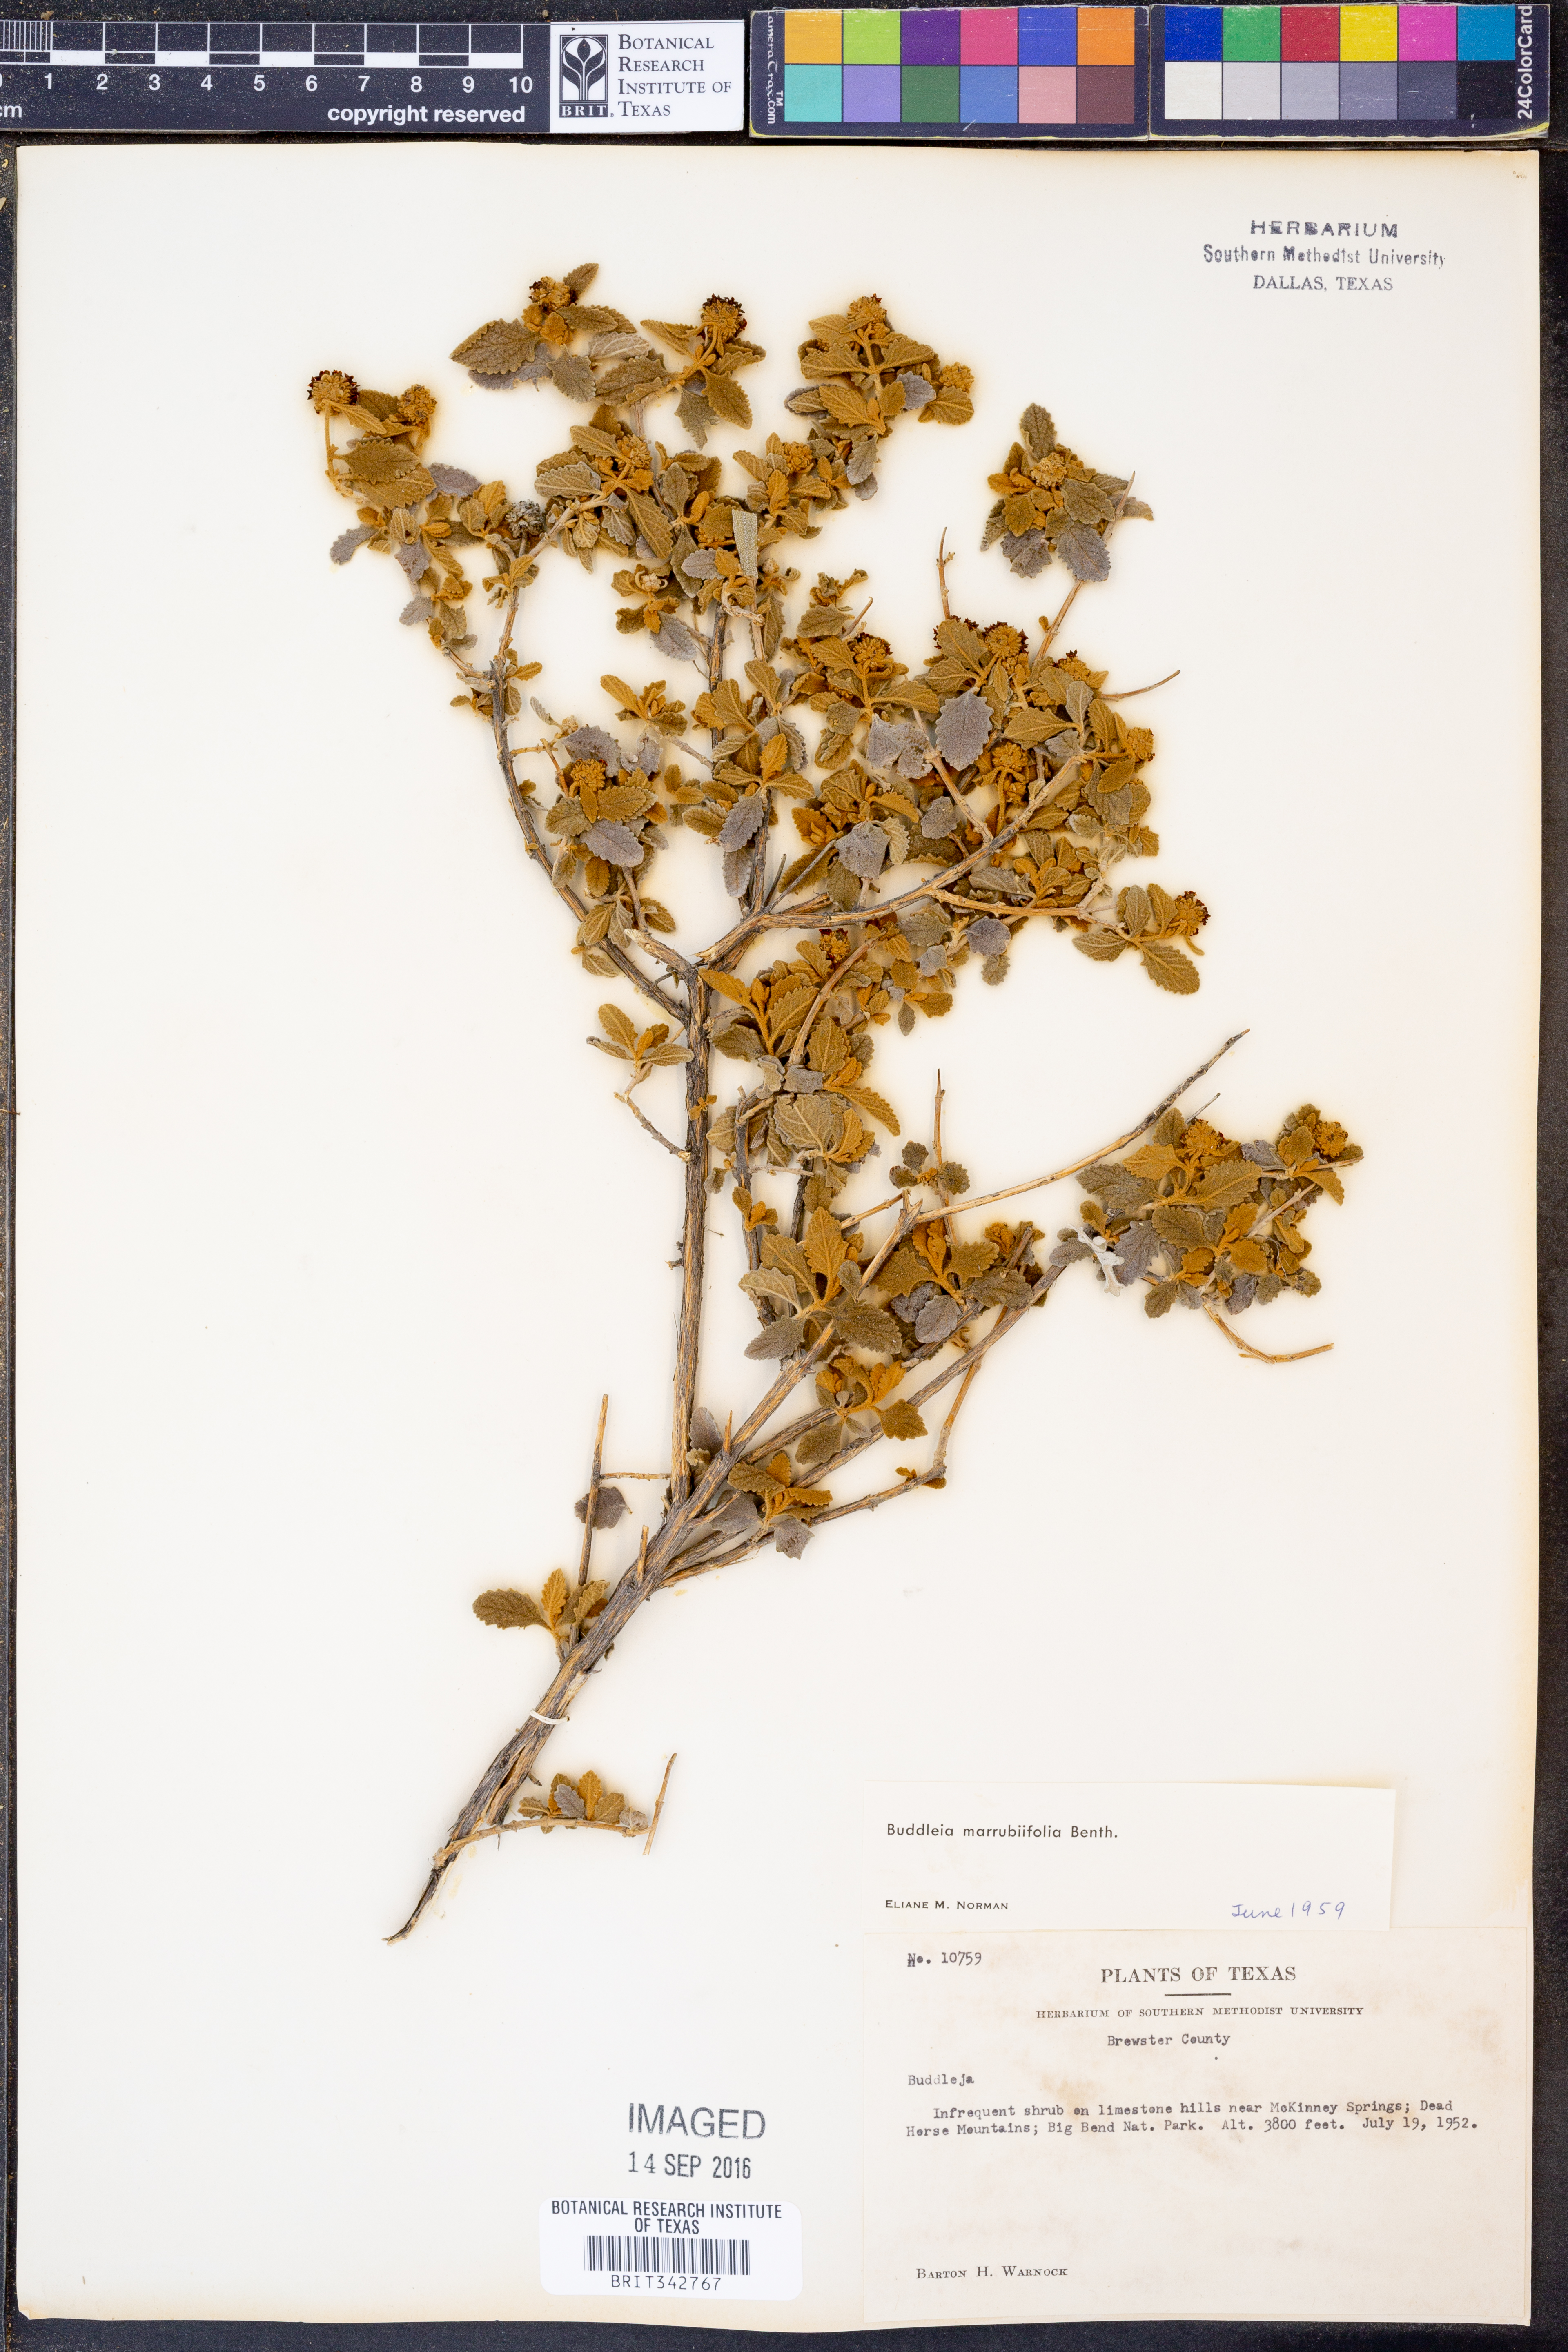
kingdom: Plantae
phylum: Tracheophyta
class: Magnoliopsida
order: Lamiales
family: Scrophulariaceae
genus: Buddleja
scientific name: Buddleja marrubiifolia
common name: Woolly butterfly-bush
